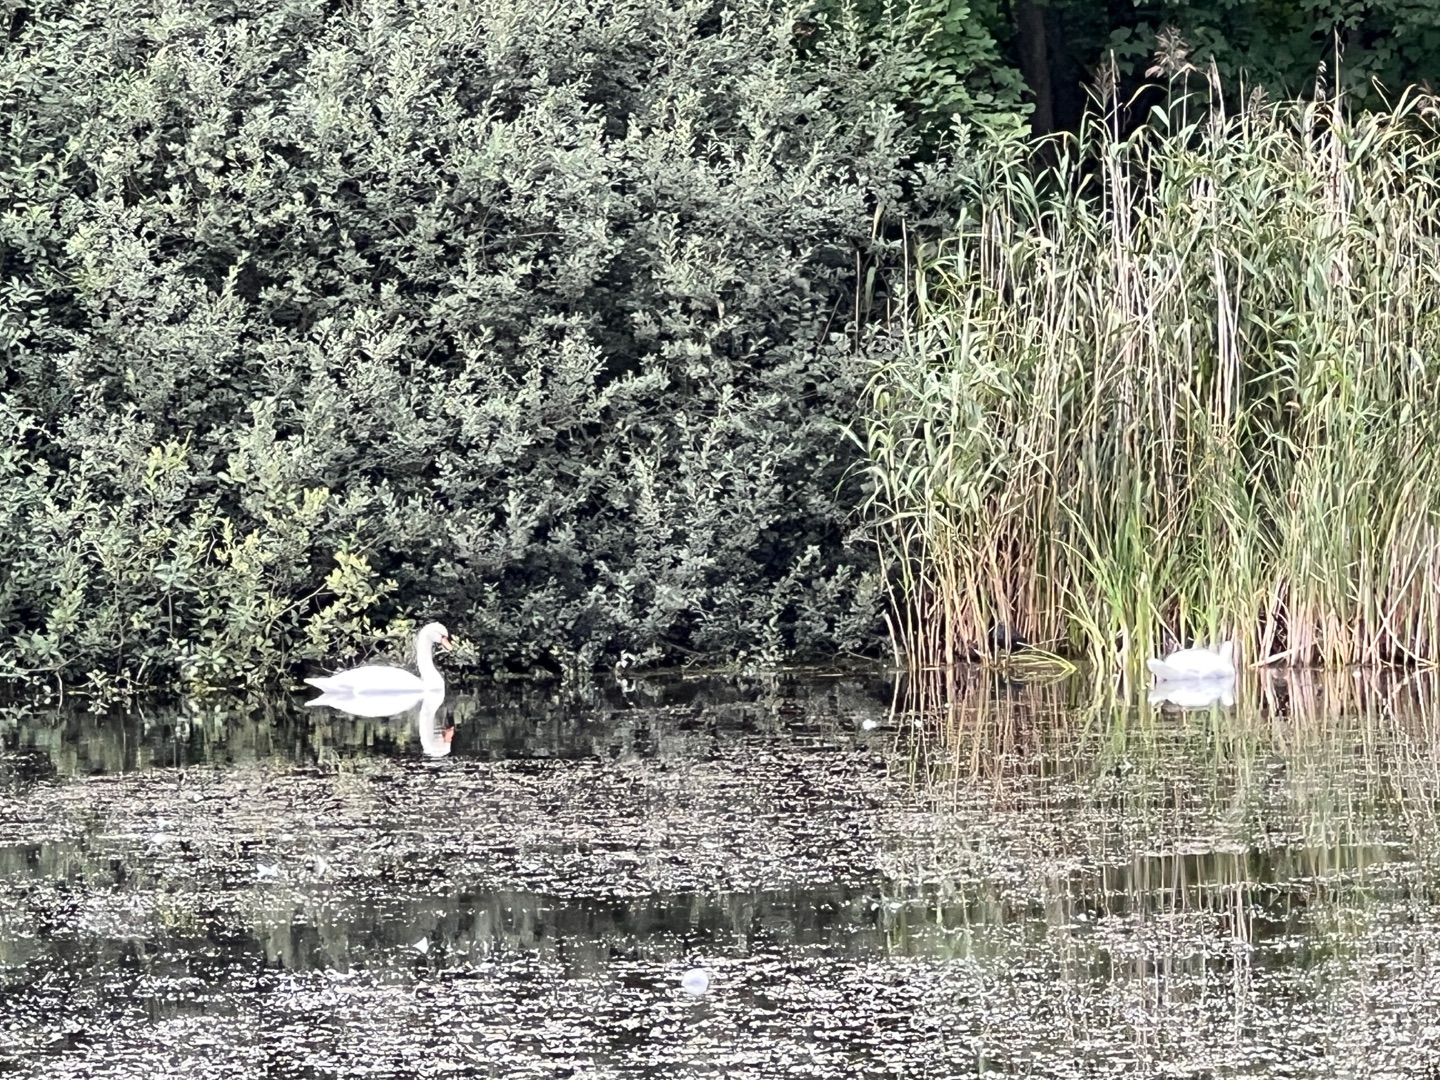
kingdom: Animalia
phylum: Chordata
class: Aves
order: Anseriformes
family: Anatidae
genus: Cygnus
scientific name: Cygnus olor
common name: Knopsvane
